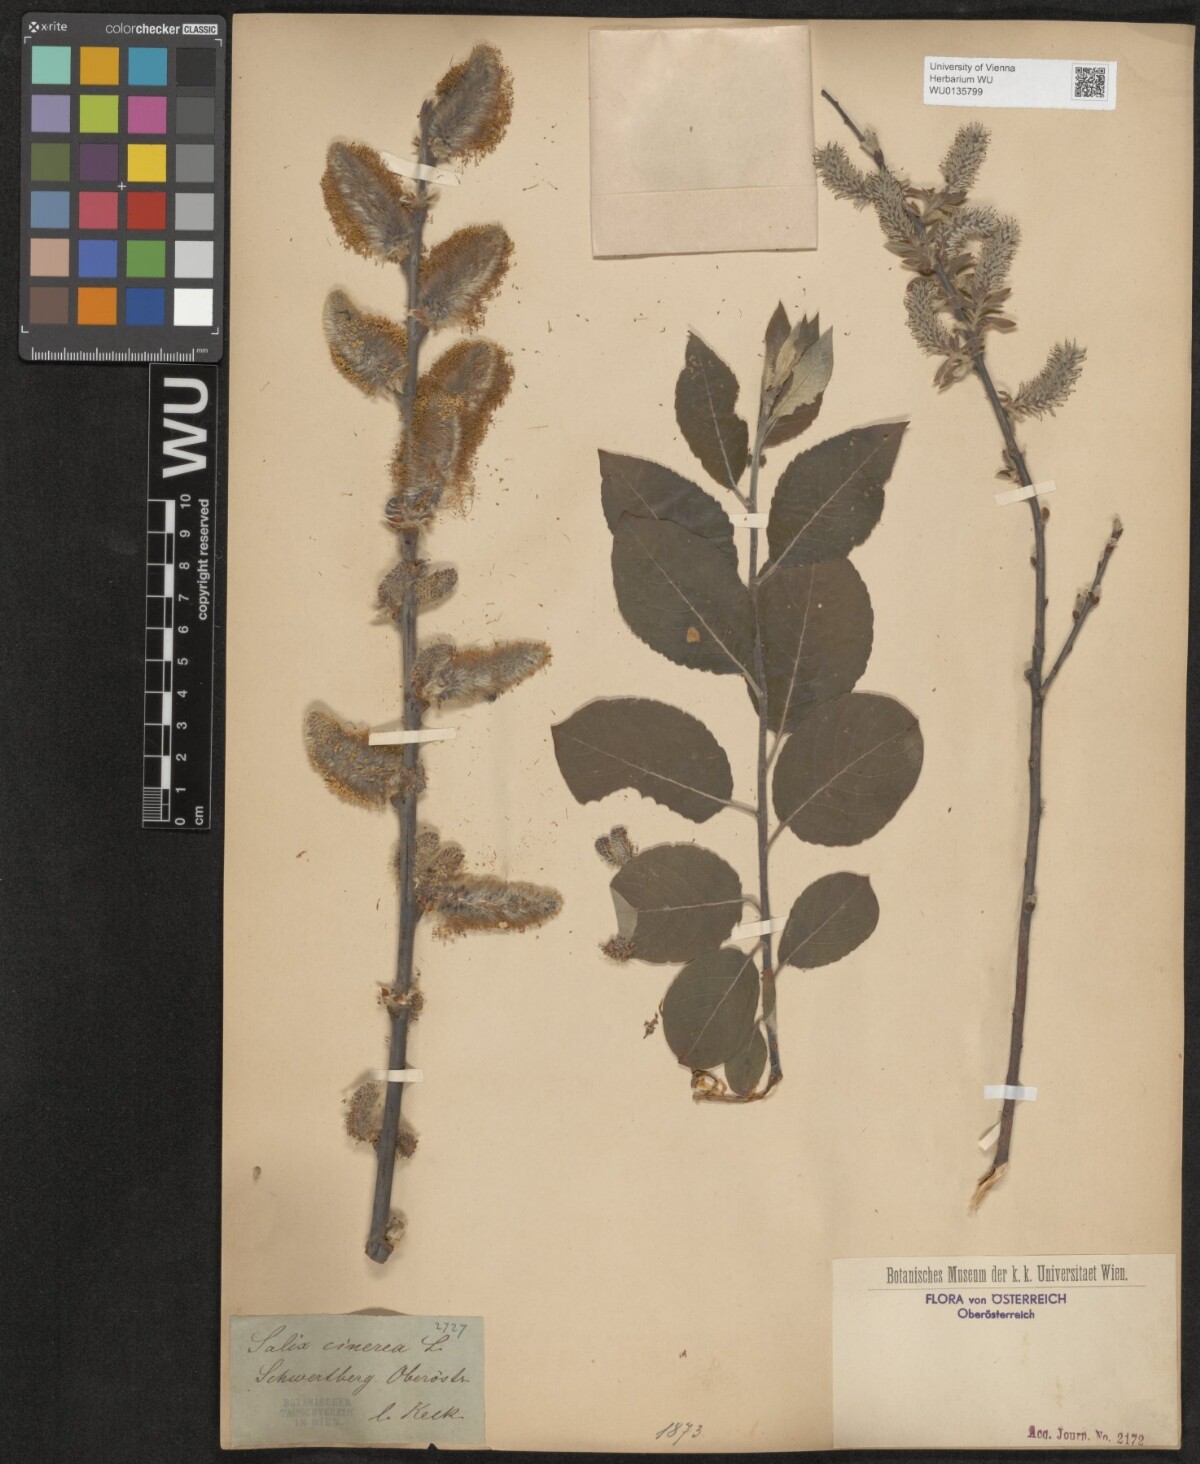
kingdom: Plantae
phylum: Tracheophyta
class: Magnoliopsida
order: Malpighiales
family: Salicaceae
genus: Salix
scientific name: Salix cinerea
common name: Common sallow
